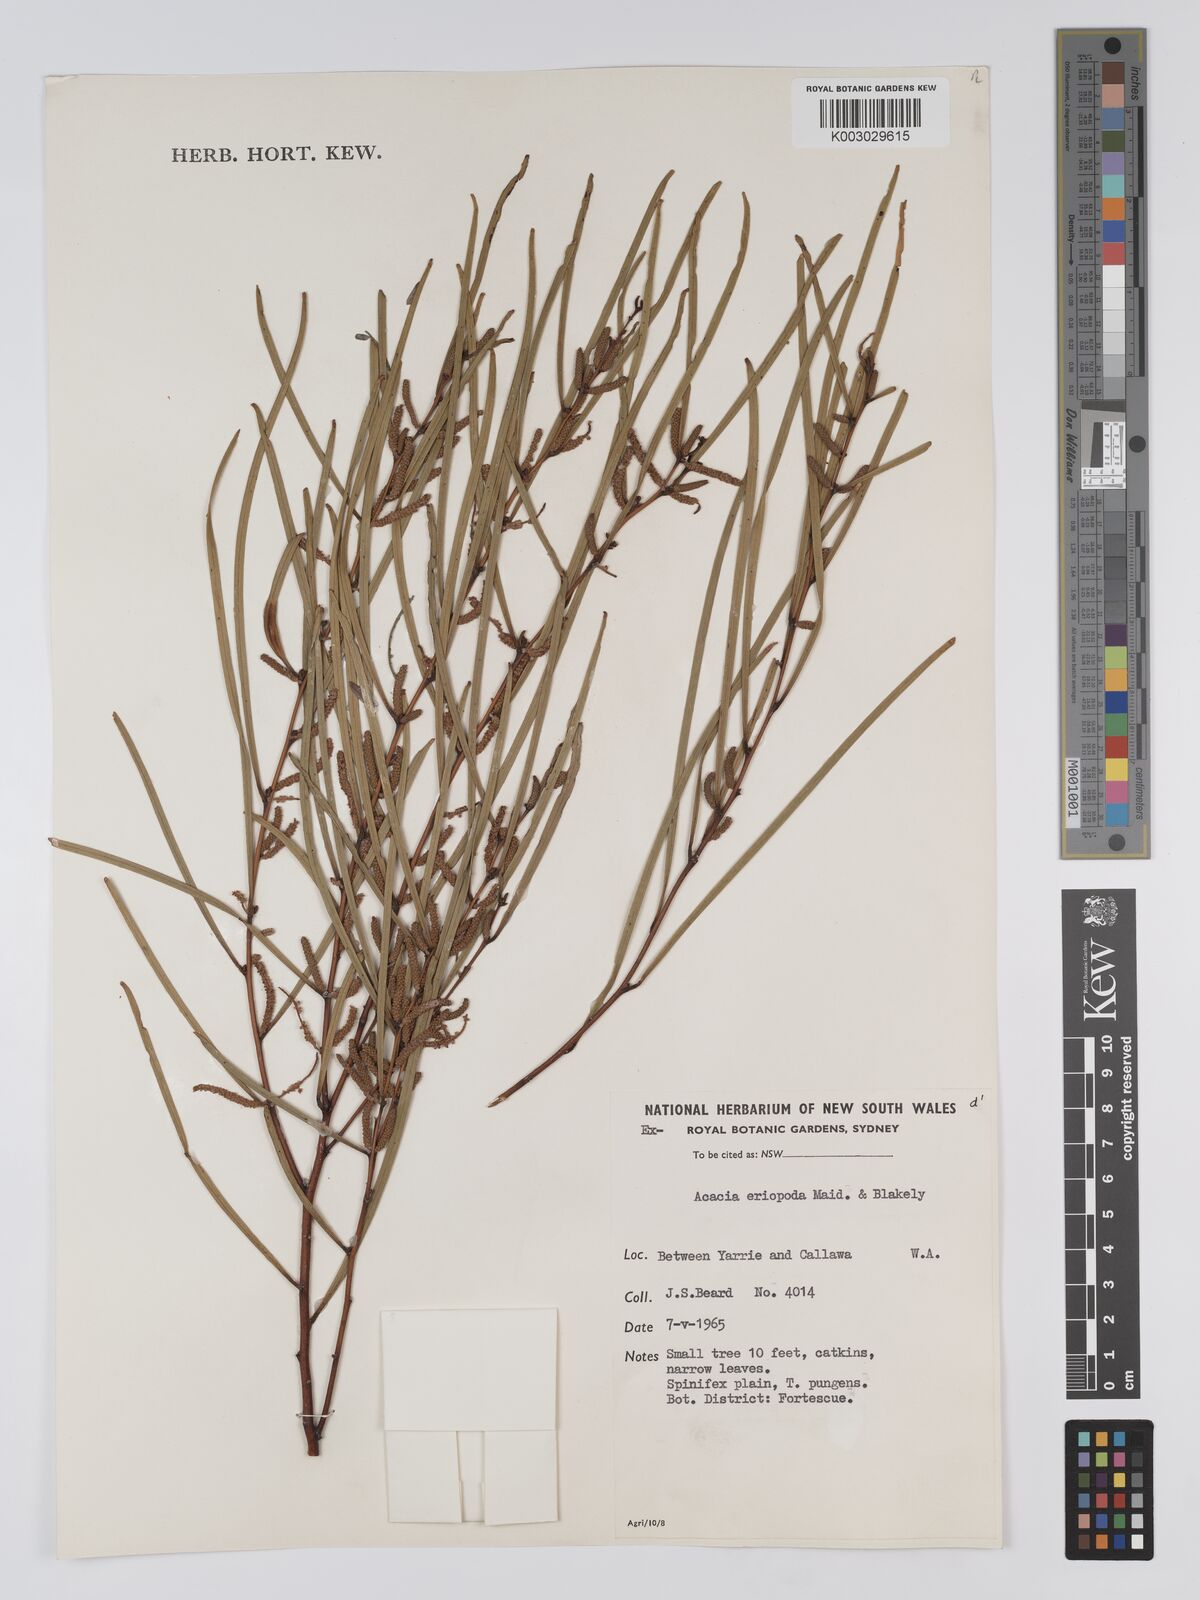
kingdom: Plantae
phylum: Tracheophyta
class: Magnoliopsida
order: Fabales
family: Fabaceae
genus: Acacia
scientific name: Acacia eriopoda
